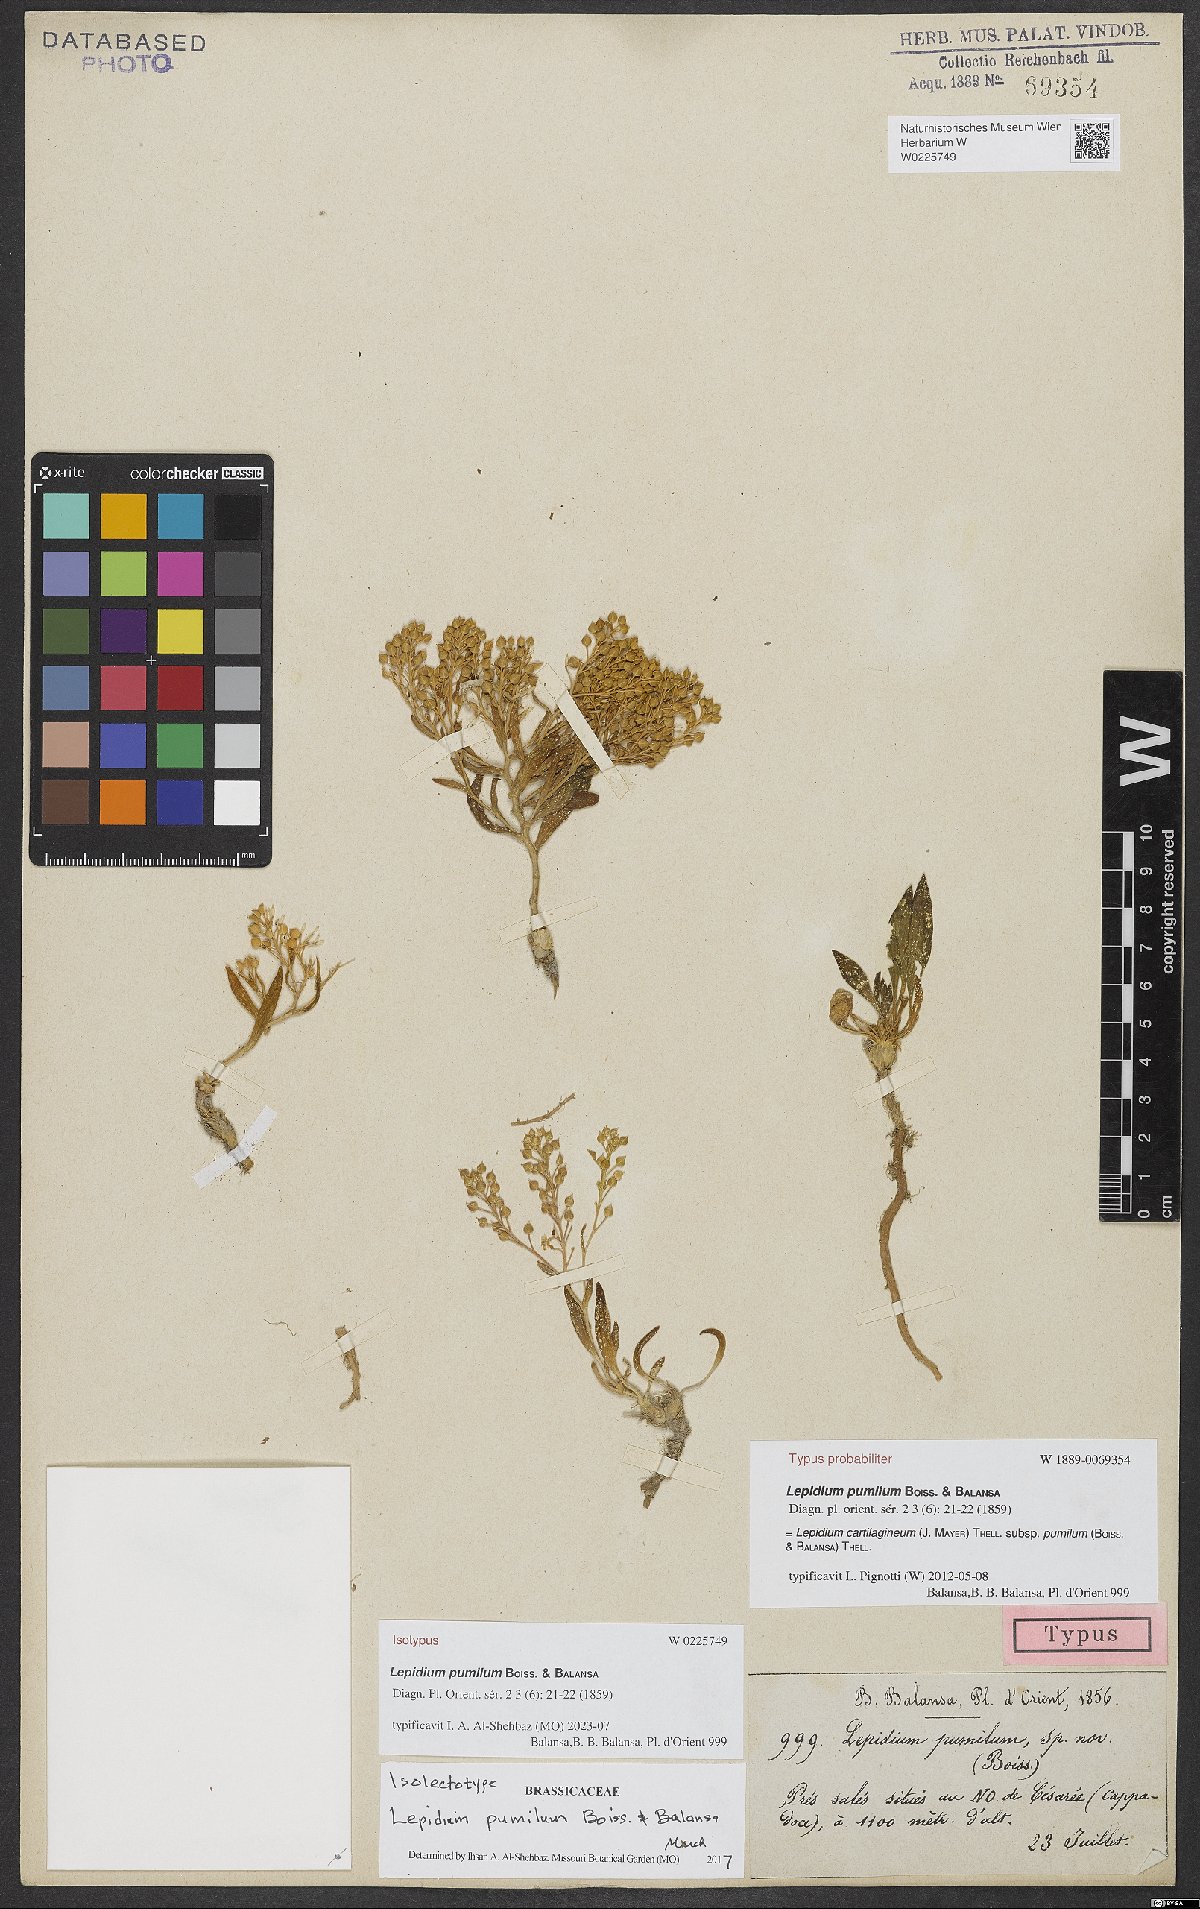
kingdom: Plantae
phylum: Tracheophyta
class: Magnoliopsida
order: Brassicales
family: Brassicaceae
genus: Lepidium
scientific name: Lepidium cartilagineum
